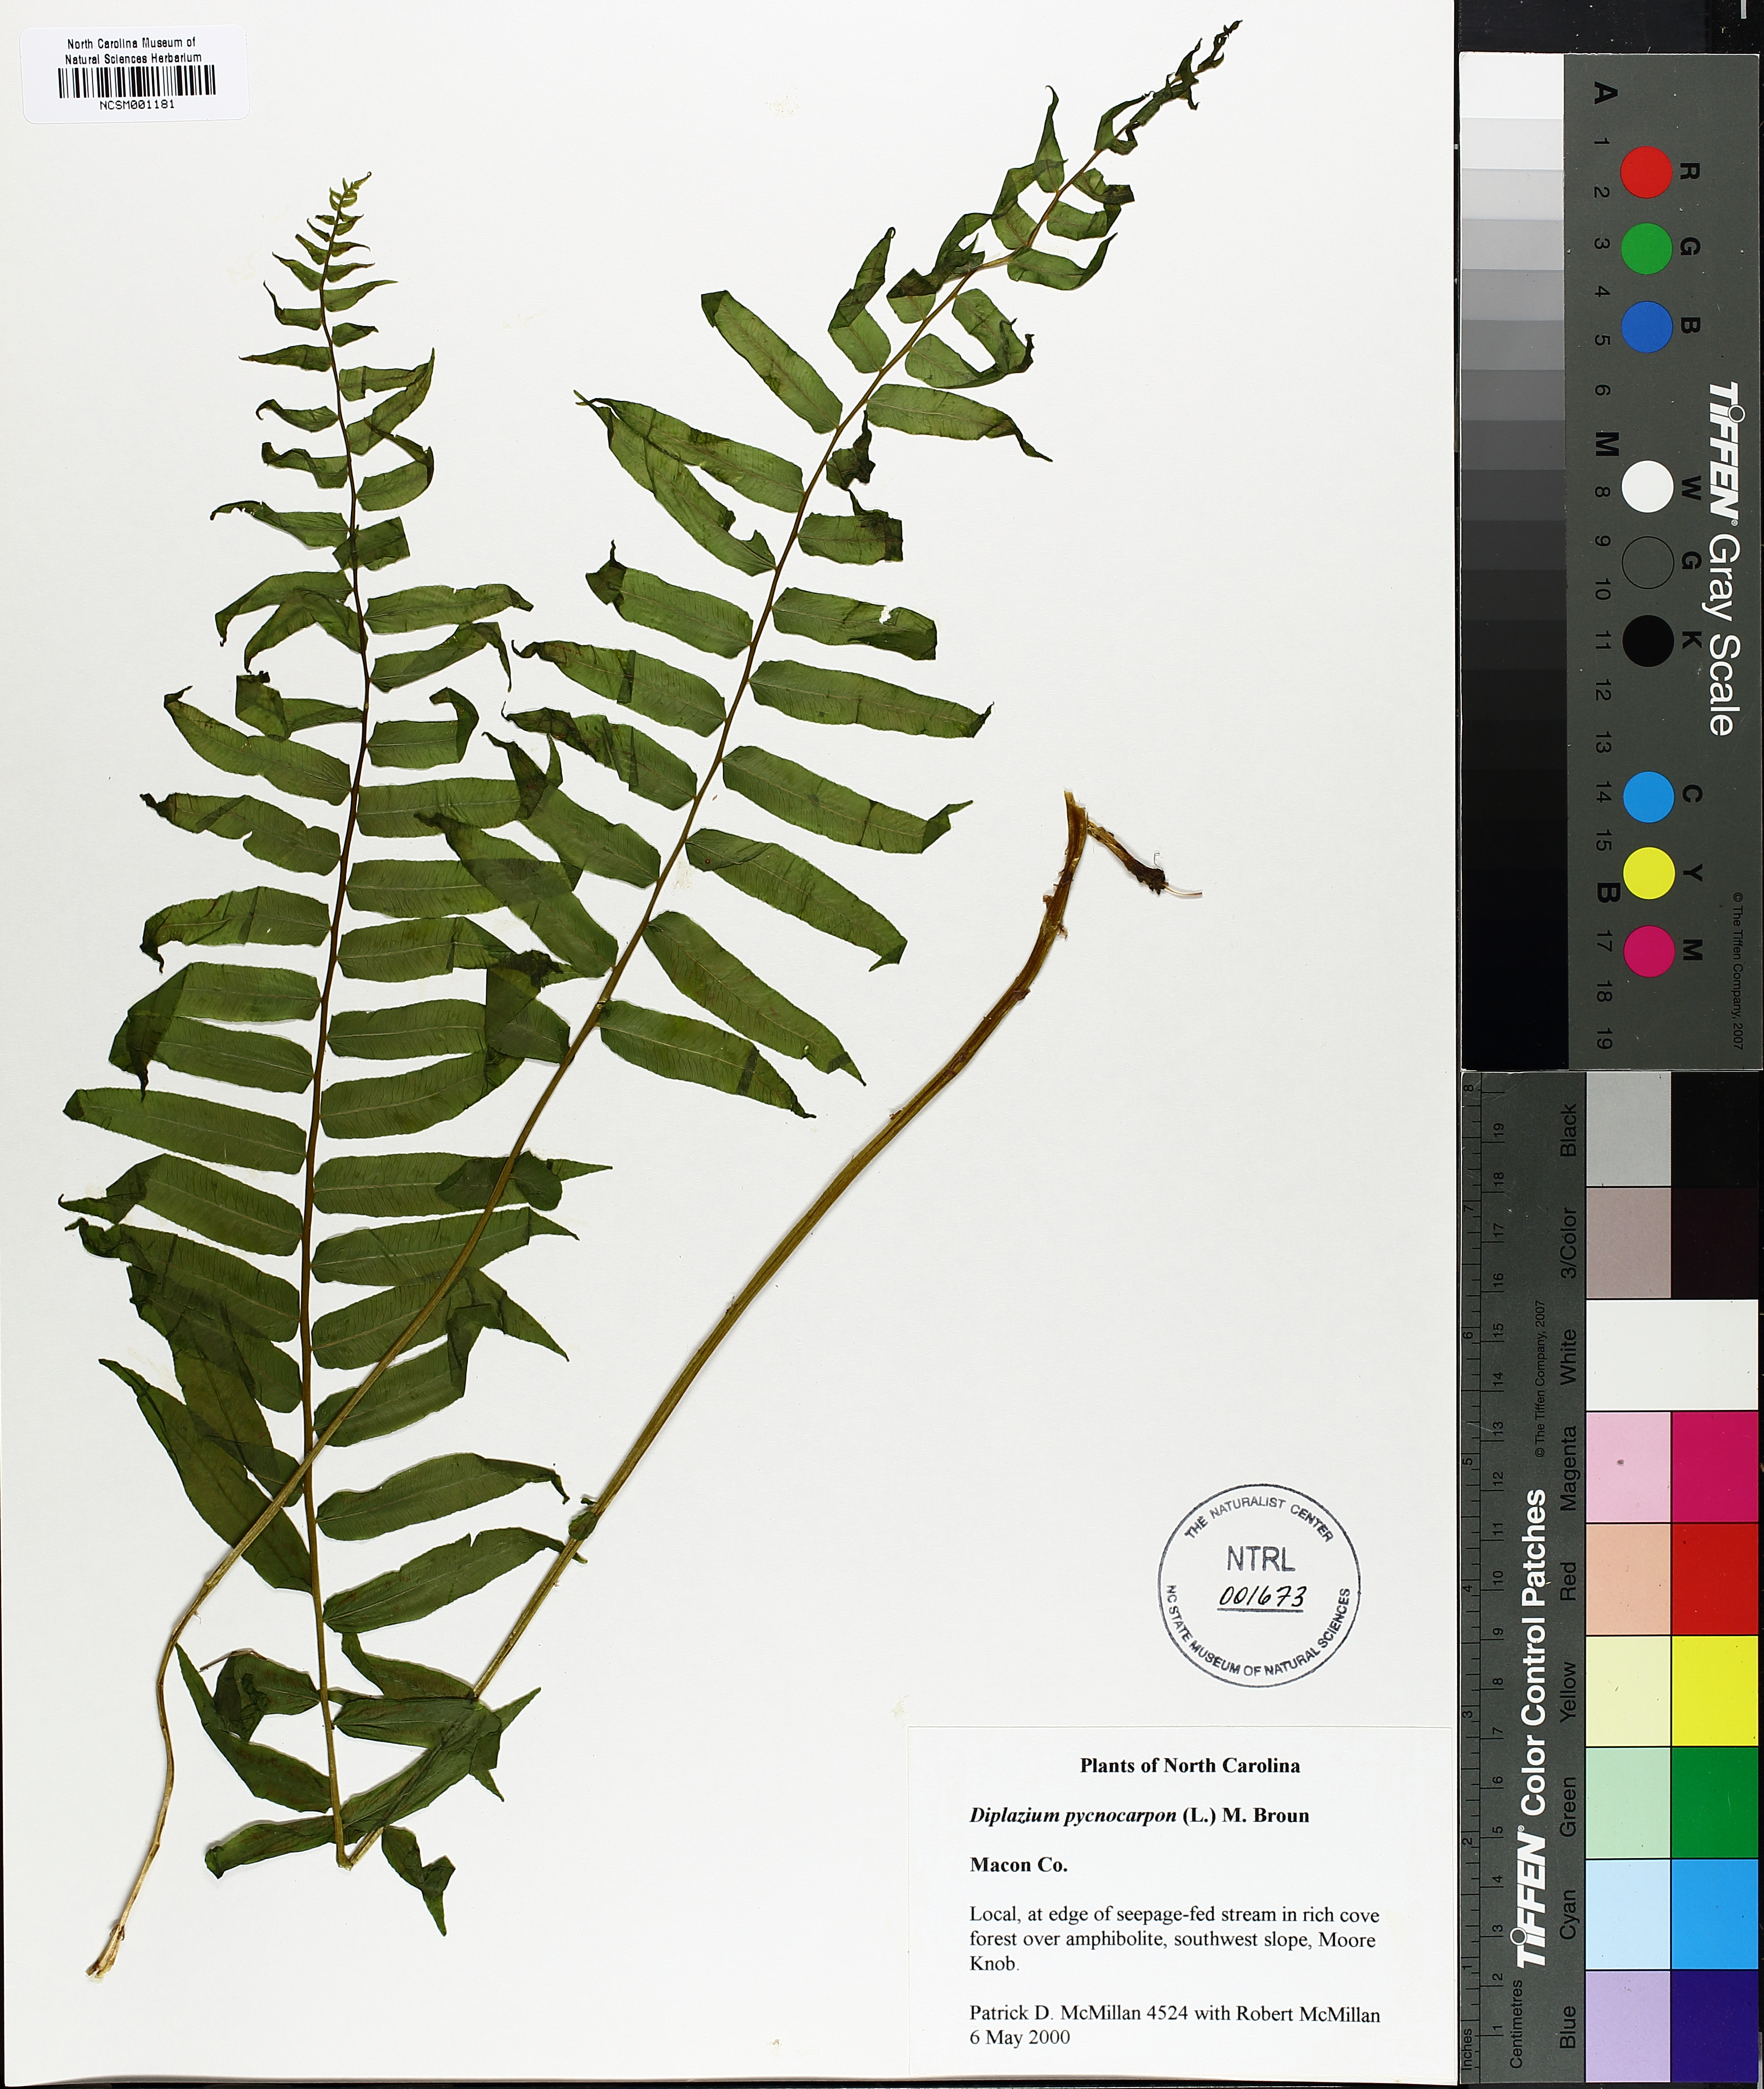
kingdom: Plantae
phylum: Tracheophyta
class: Polypodiopsida
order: Polypodiales
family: Diplaziopsidaceae
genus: Homalosorus
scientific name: Homalosorus pycnocarpos
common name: Glade fern
